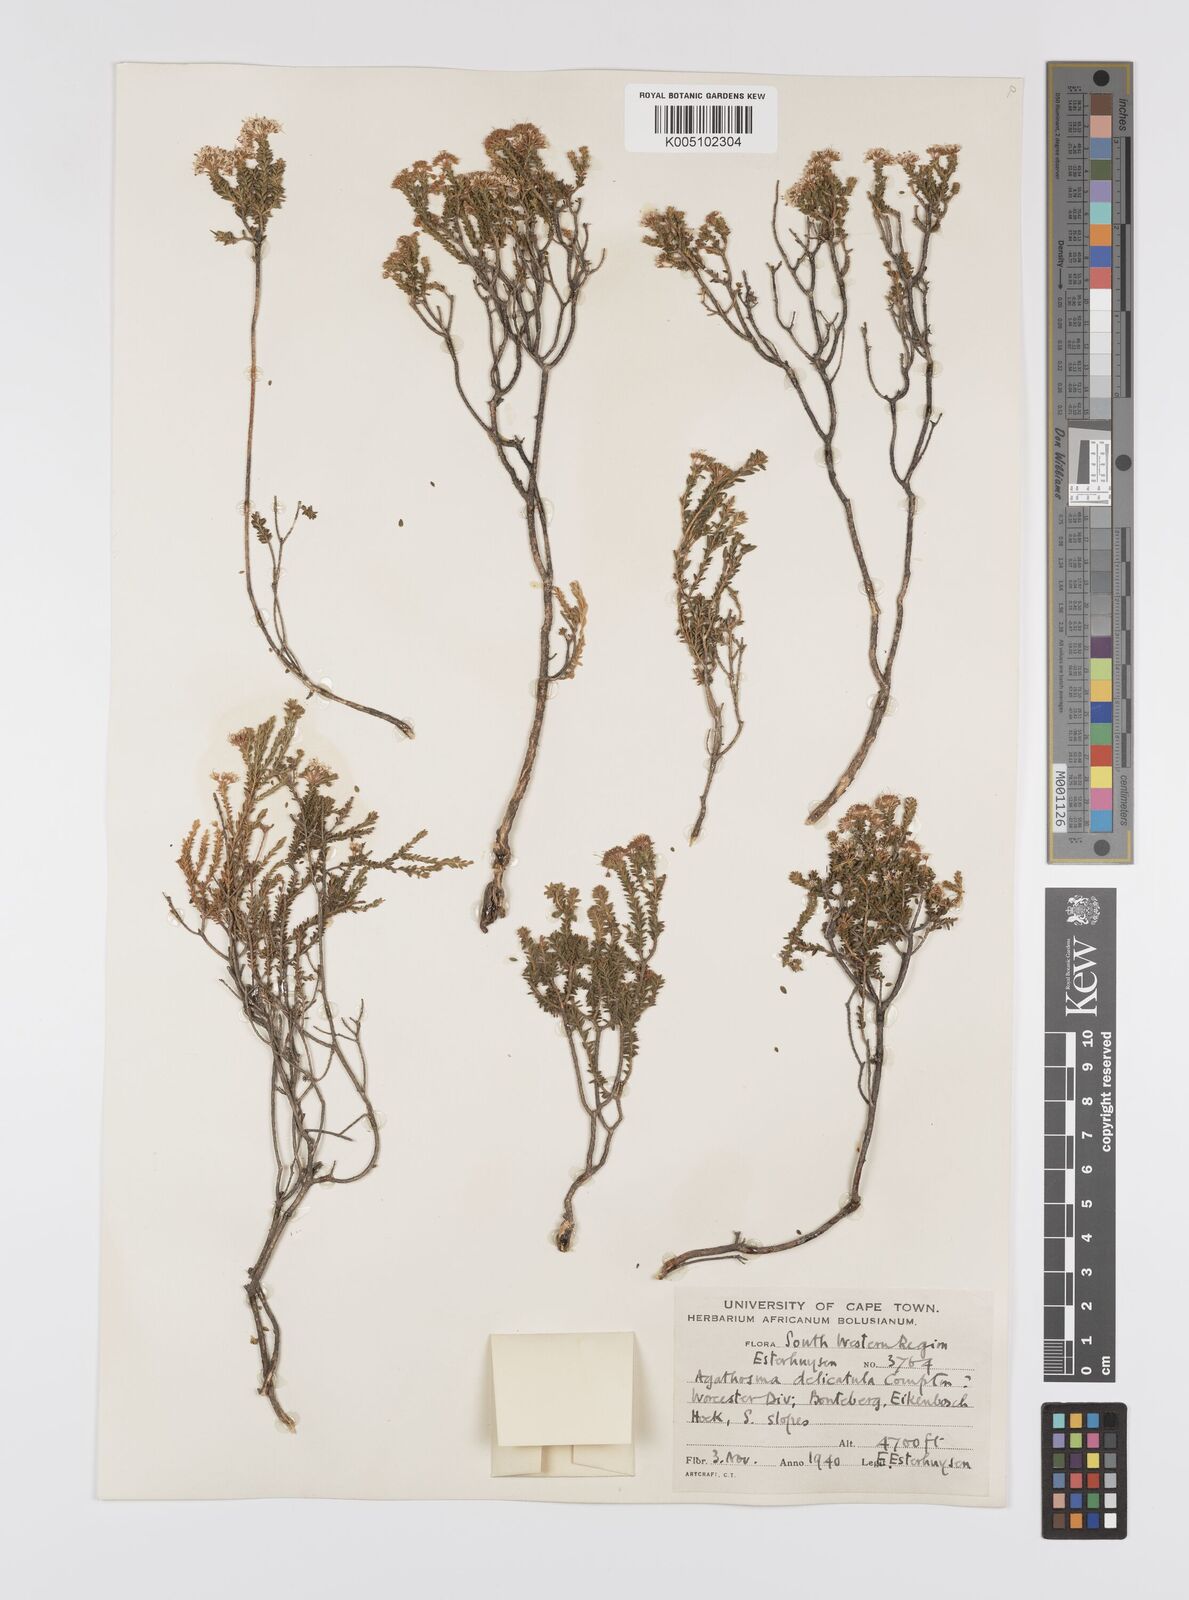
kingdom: Plantae
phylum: Tracheophyta
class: Magnoliopsida
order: Sapindales
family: Rutaceae
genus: Agathosma
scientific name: Agathosma capensis
